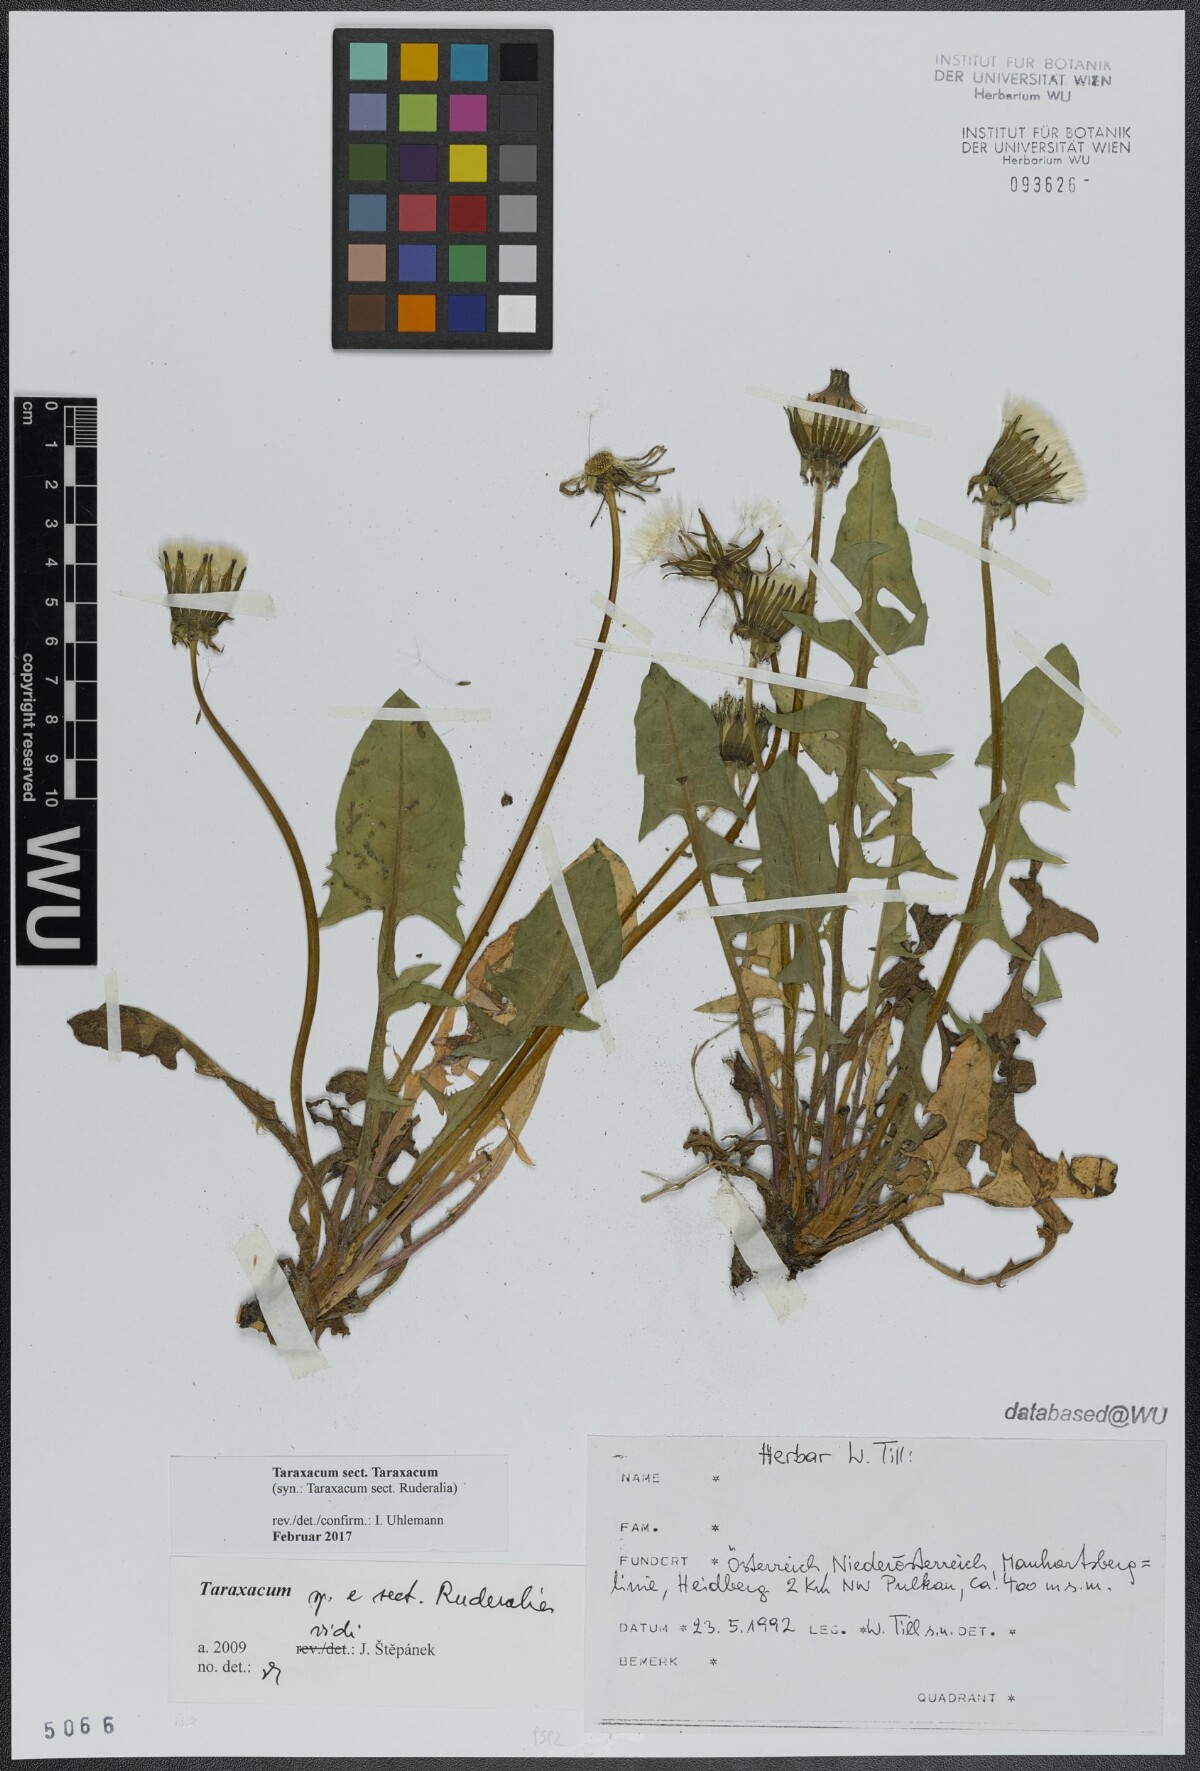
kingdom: Plantae
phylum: Tracheophyta
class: Magnoliopsida
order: Asterales
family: Asteraceae
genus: Taraxacum
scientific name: Taraxacum
